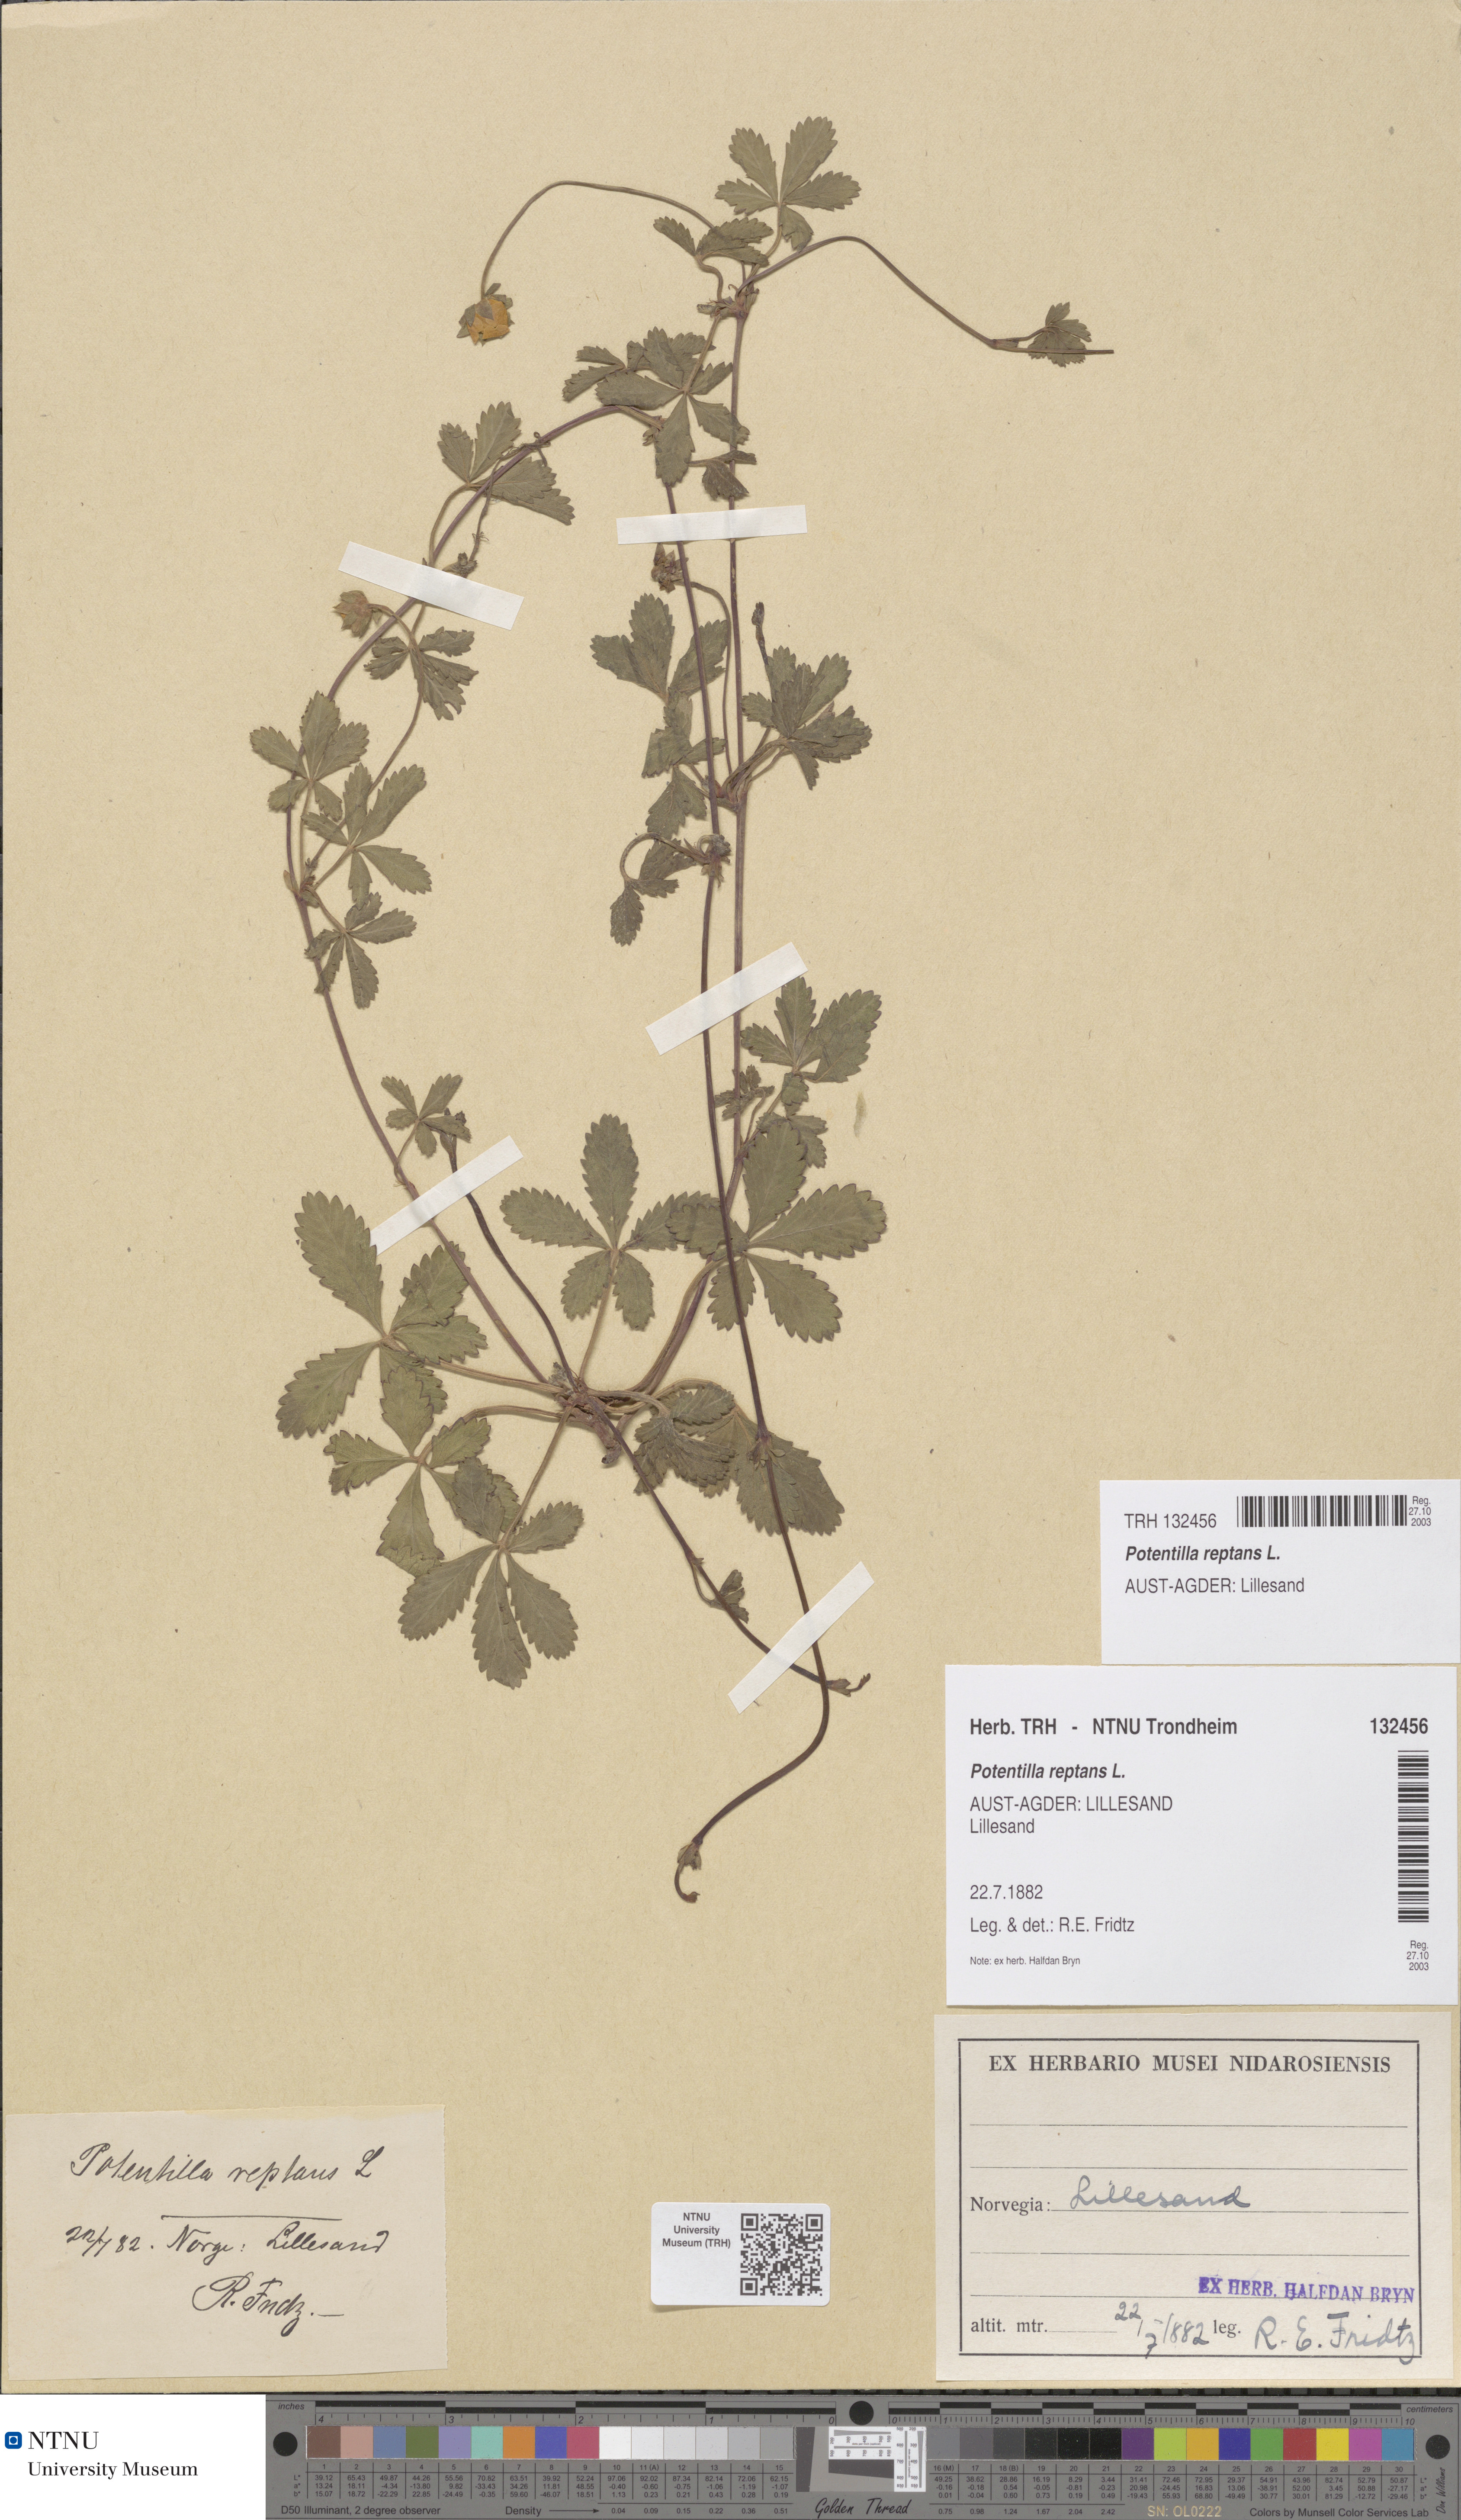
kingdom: Plantae
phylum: Tracheophyta
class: Magnoliopsida
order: Rosales
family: Rosaceae
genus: Potentilla
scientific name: Potentilla reptans
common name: Creeping cinquefoil
